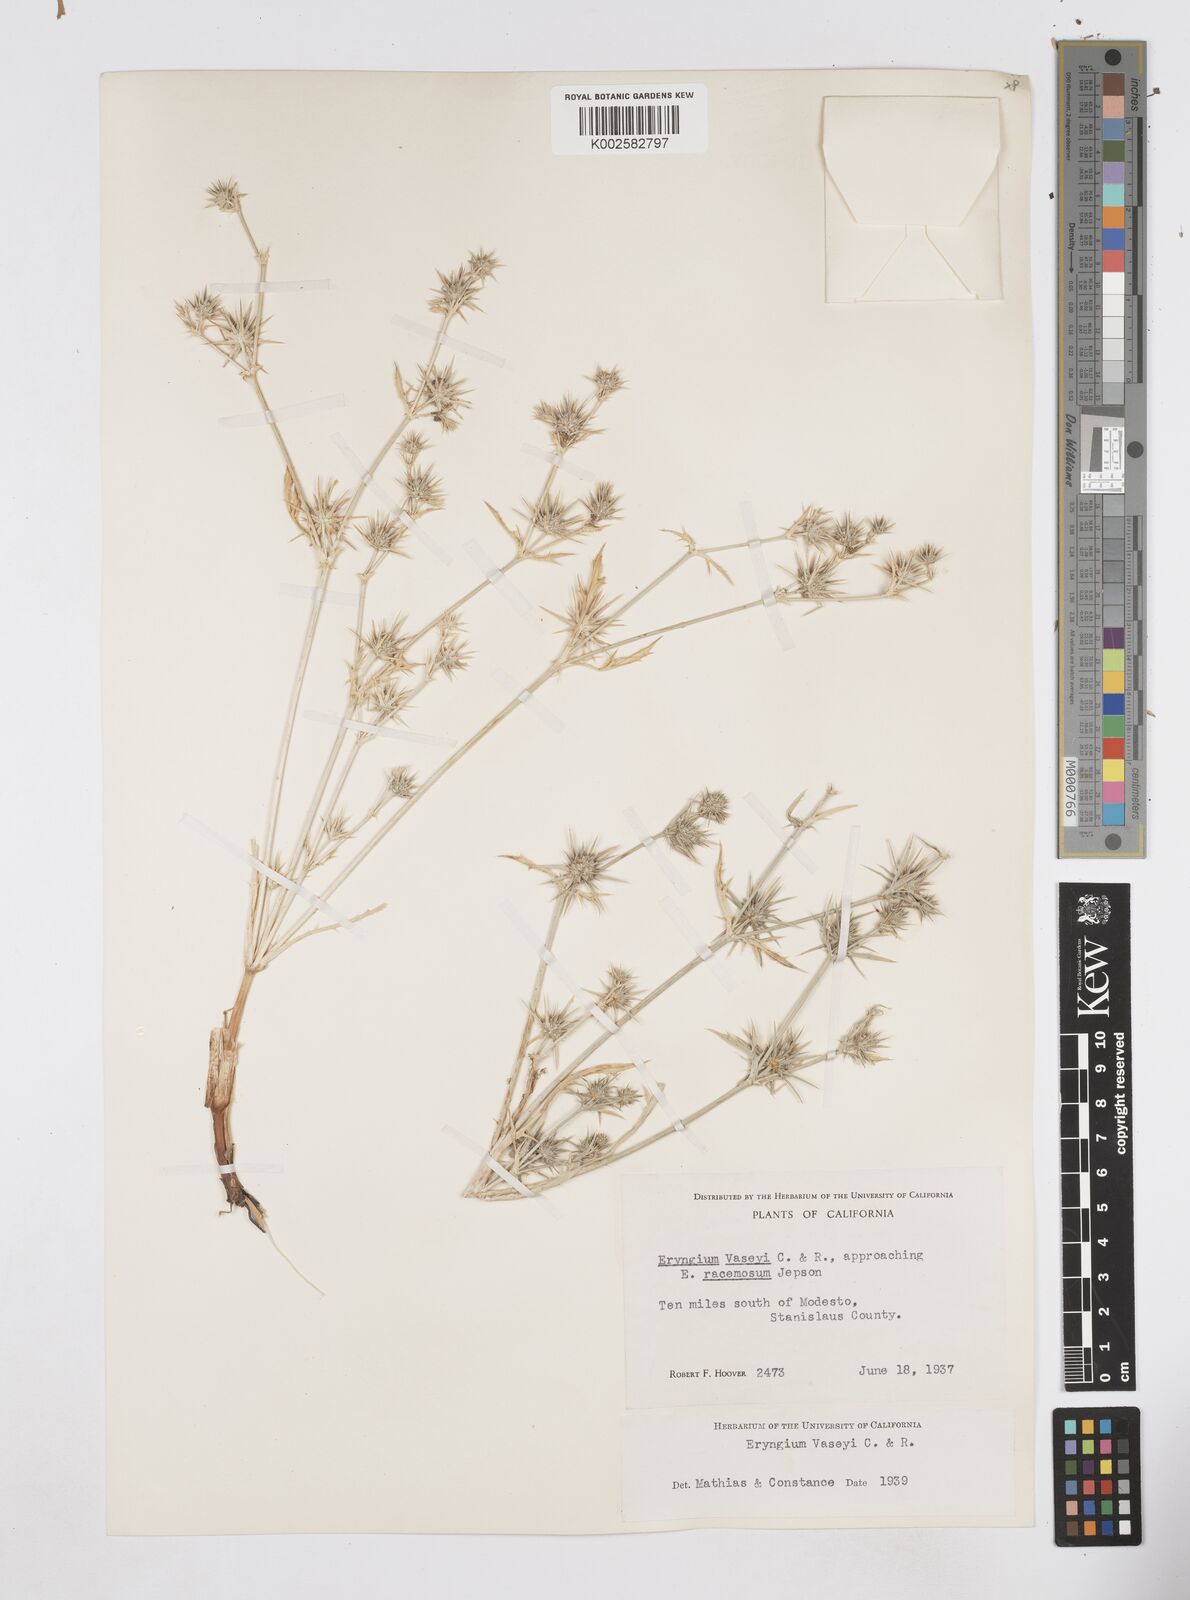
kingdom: Plantae
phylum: Tracheophyta
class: Magnoliopsida
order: Apiales
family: Apiaceae
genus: Eryngium
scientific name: Eryngium vaseyi
